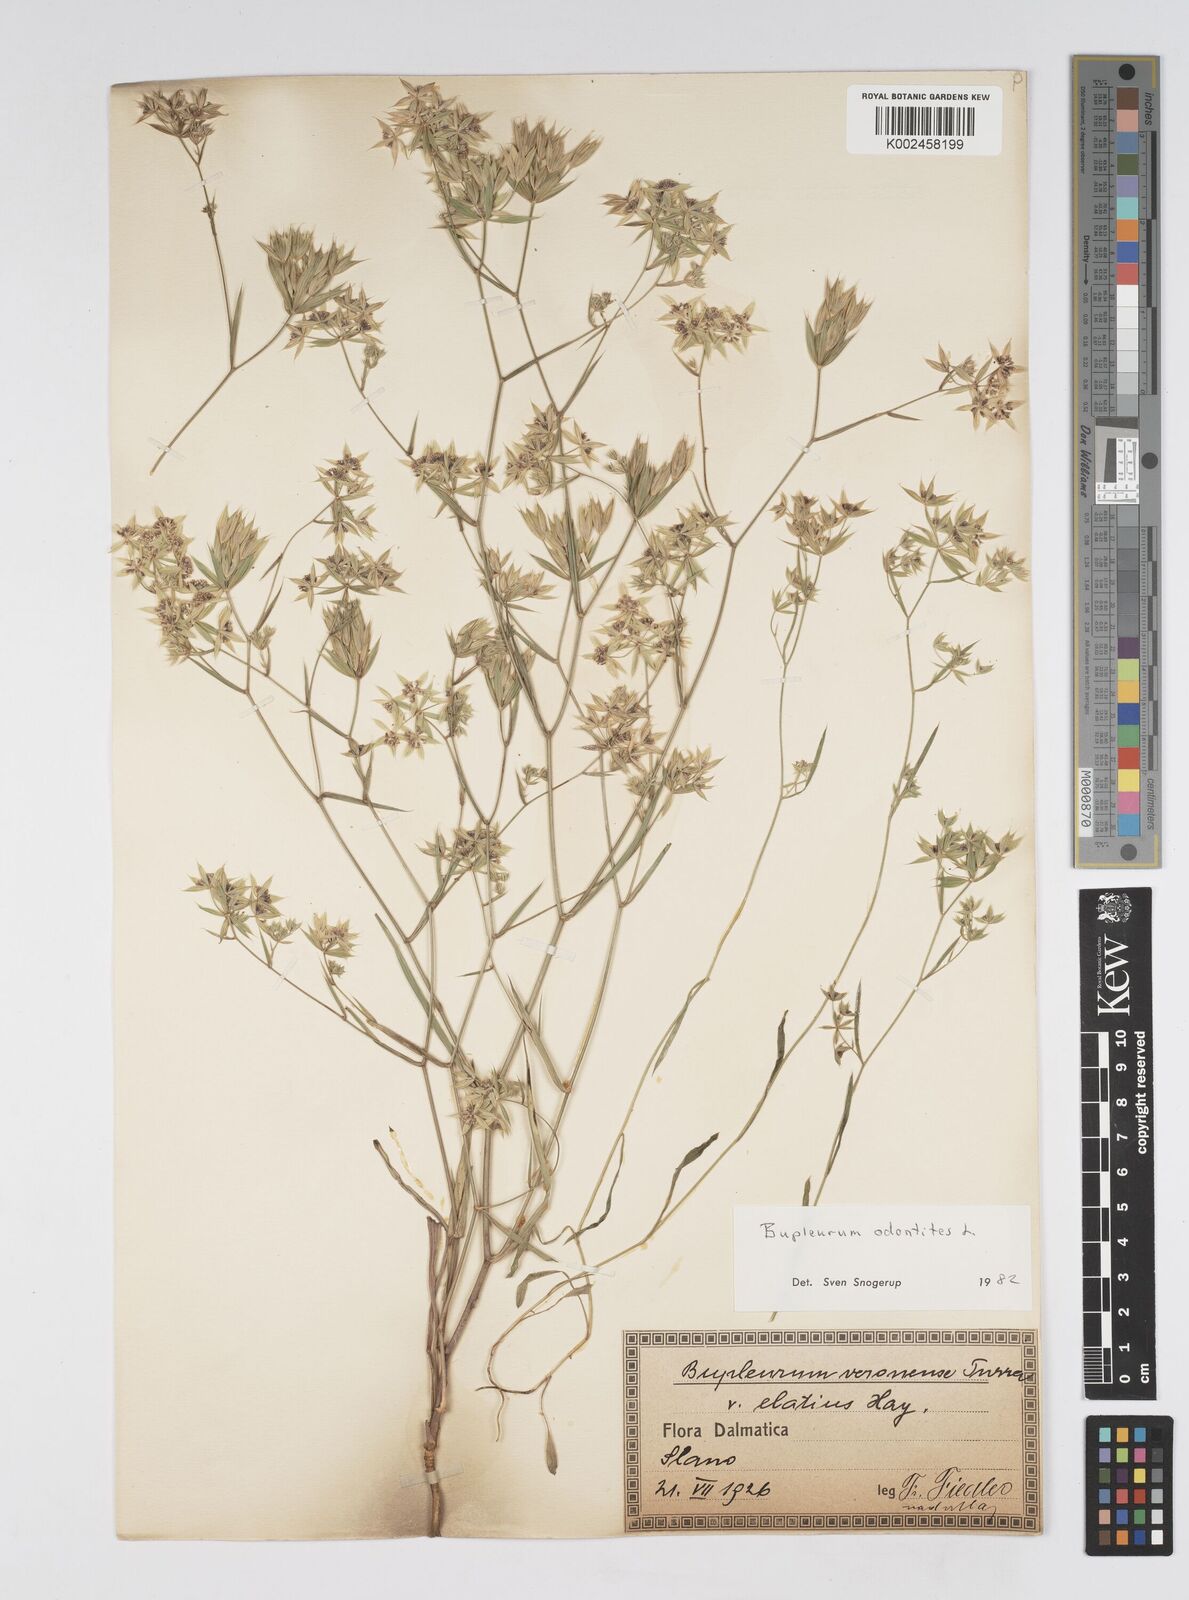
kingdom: Plantae
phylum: Tracheophyta
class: Magnoliopsida
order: Apiales
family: Apiaceae
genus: Bupleurum
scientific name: Bupleurum odontites
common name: Narrowleaf thorow wax
